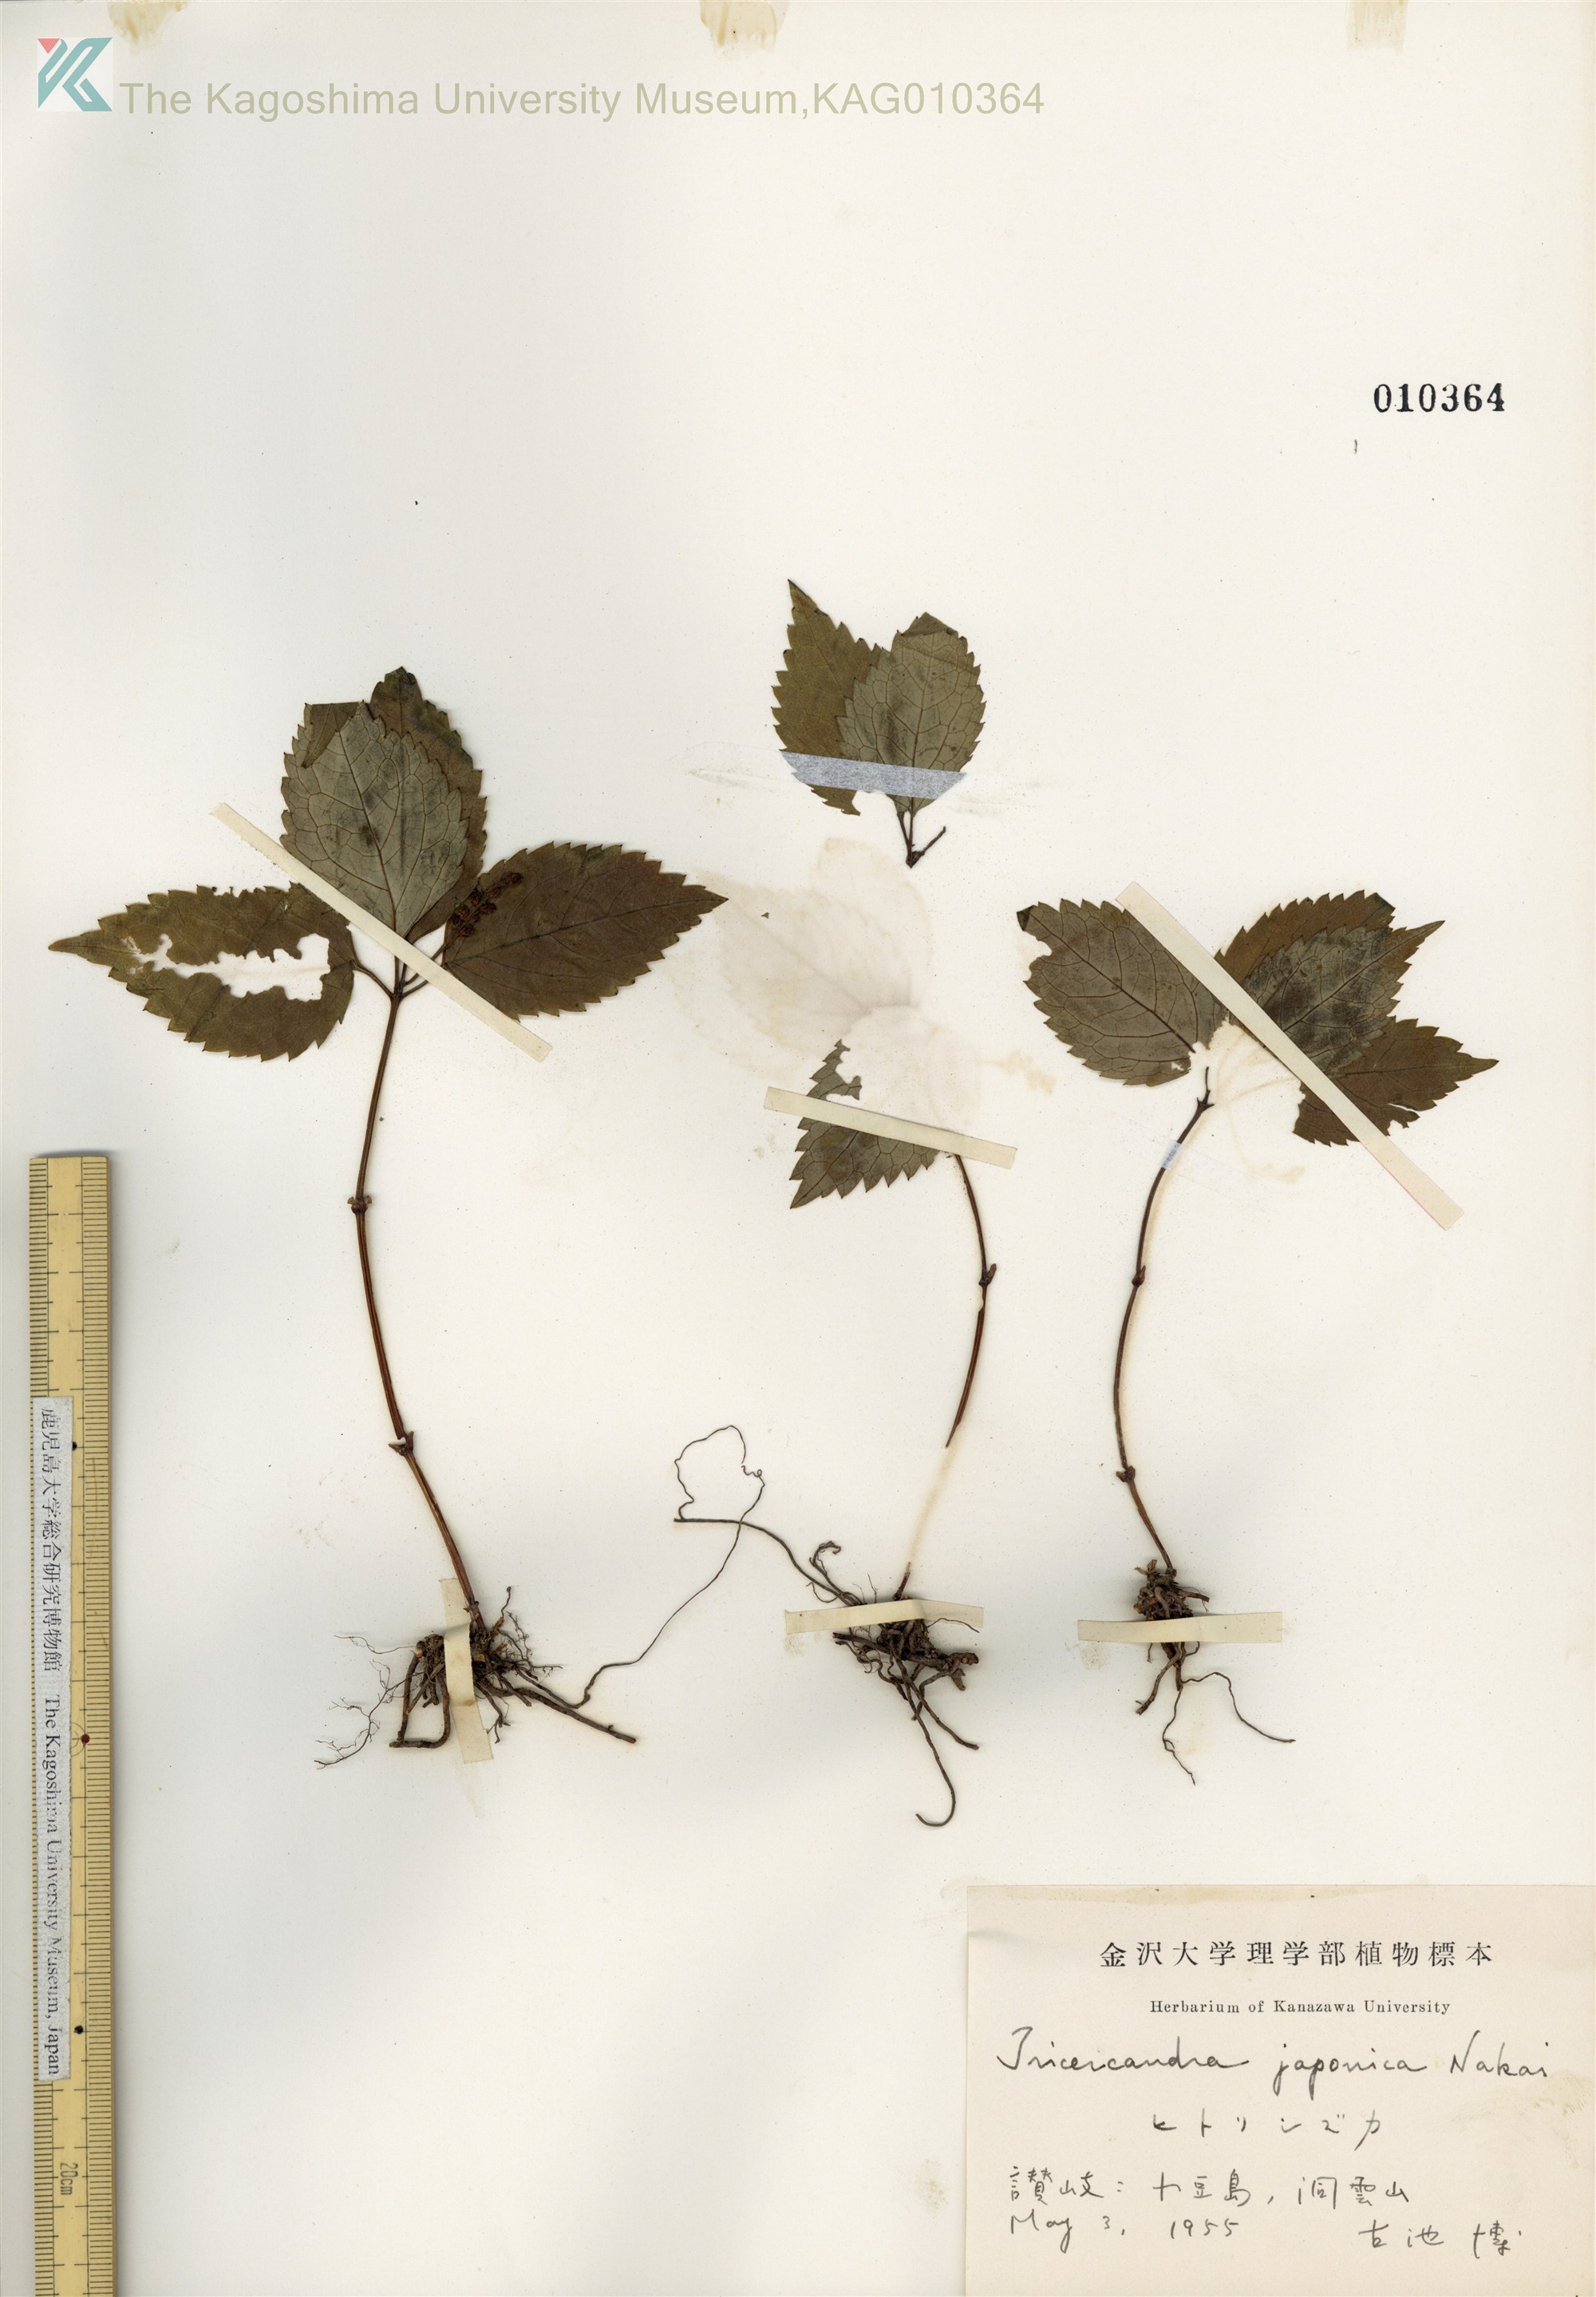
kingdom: Plantae
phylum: Tracheophyta
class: Magnoliopsida
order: Chloranthales
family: Chloranthaceae
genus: Chloranthus
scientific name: Chloranthus japonicus
